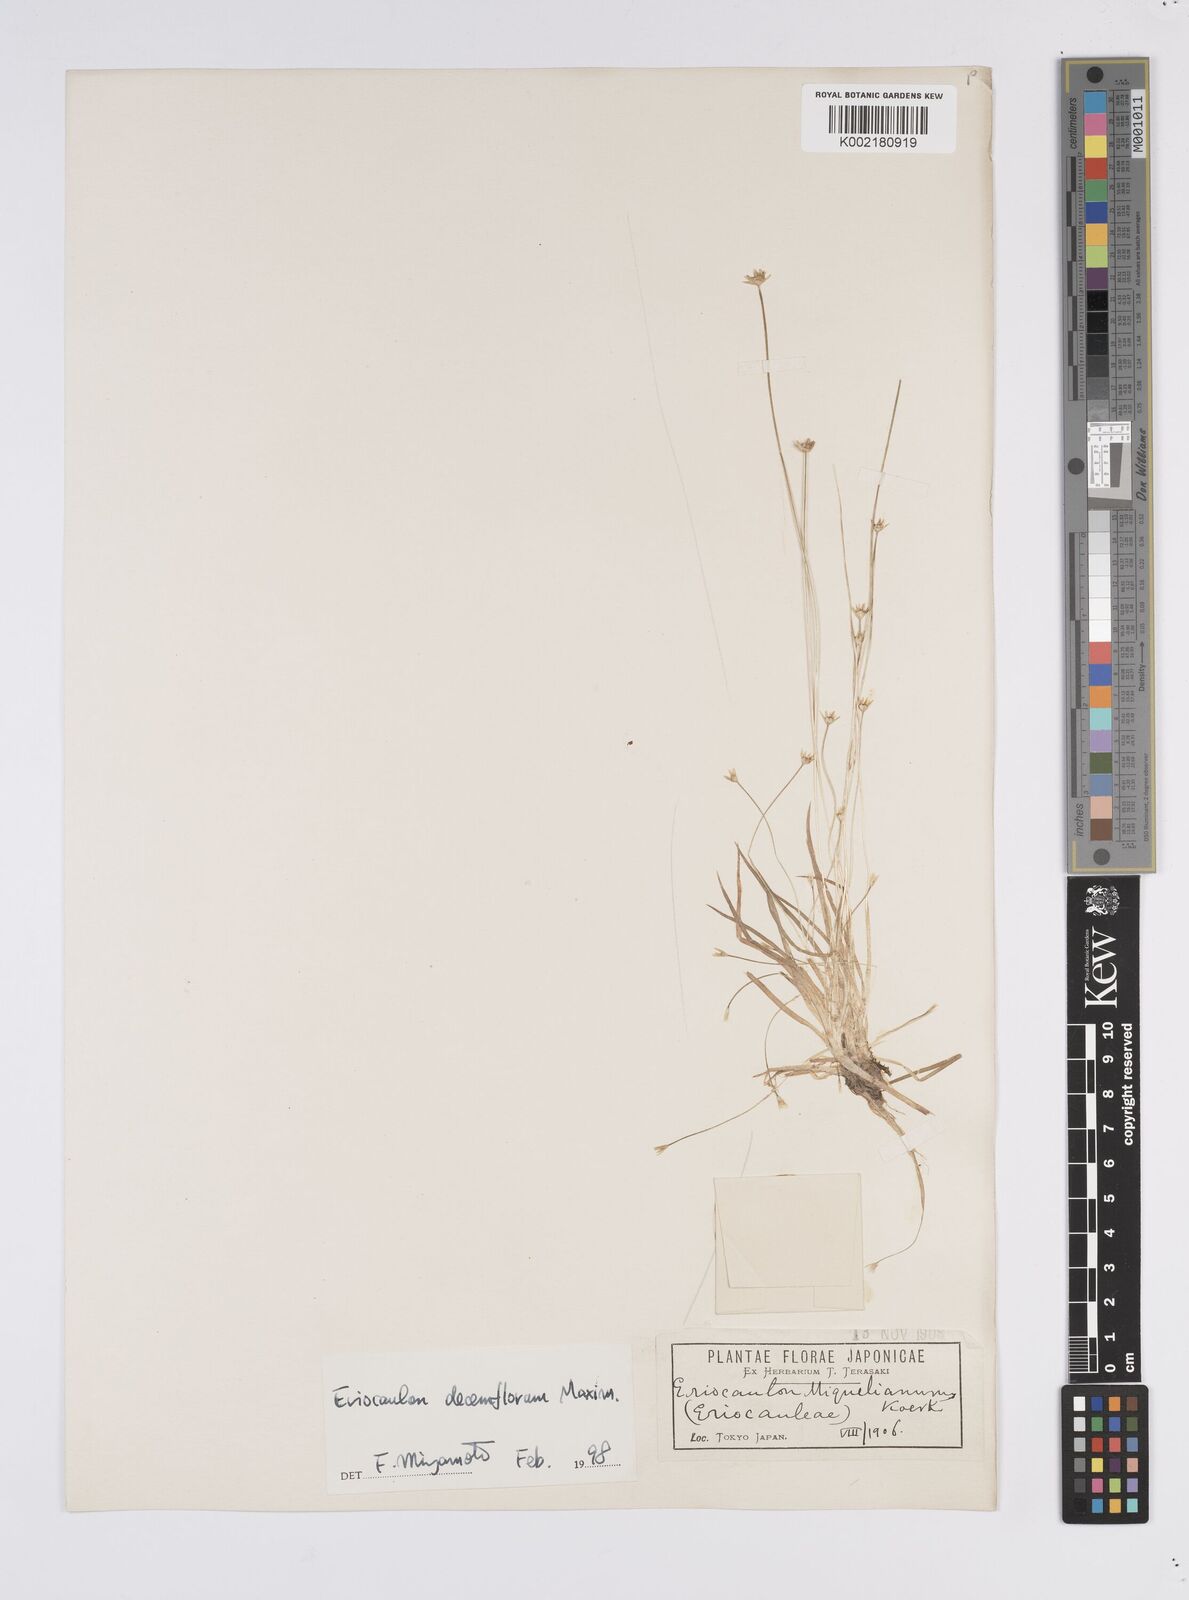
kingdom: Plantae
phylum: Tracheophyta
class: Liliopsida
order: Poales
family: Eriocaulaceae
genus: Eriocaulon
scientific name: Eriocaulon decemflorum
